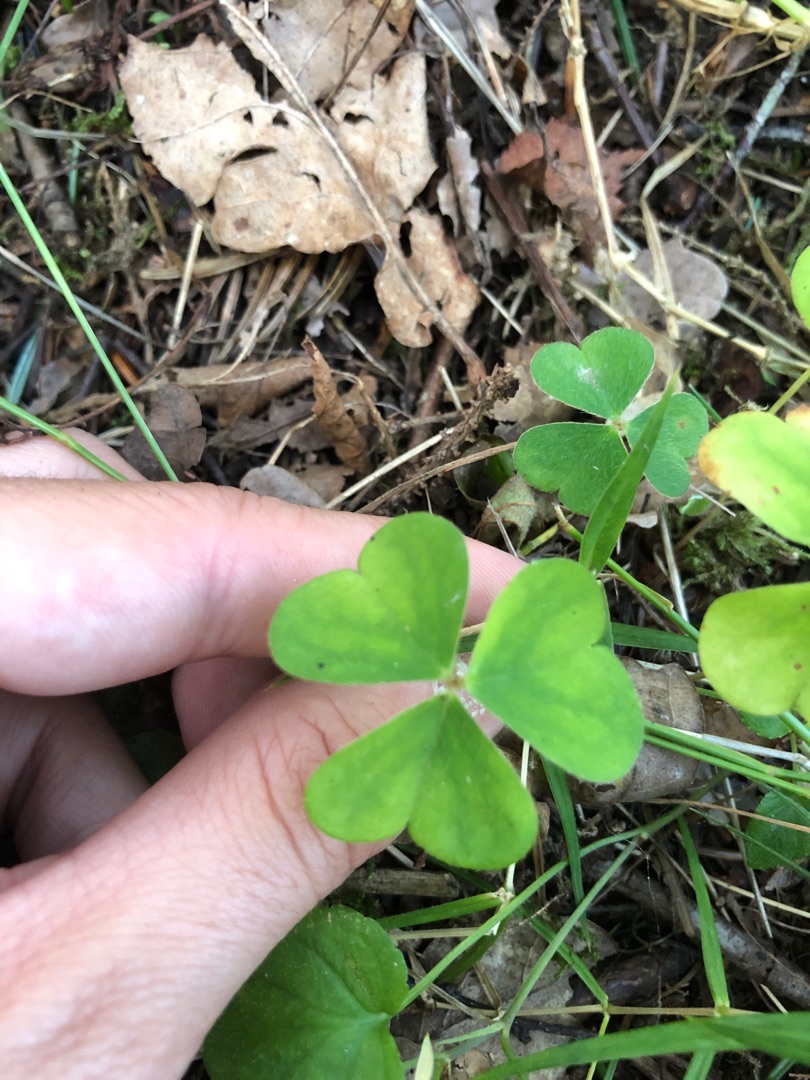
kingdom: Plantae
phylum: Tracheophyta
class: Magnoliopsida
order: Oxalidales
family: Oxalidaceae
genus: Oxalis
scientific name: Oxalis acetosella
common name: Skovsyre
